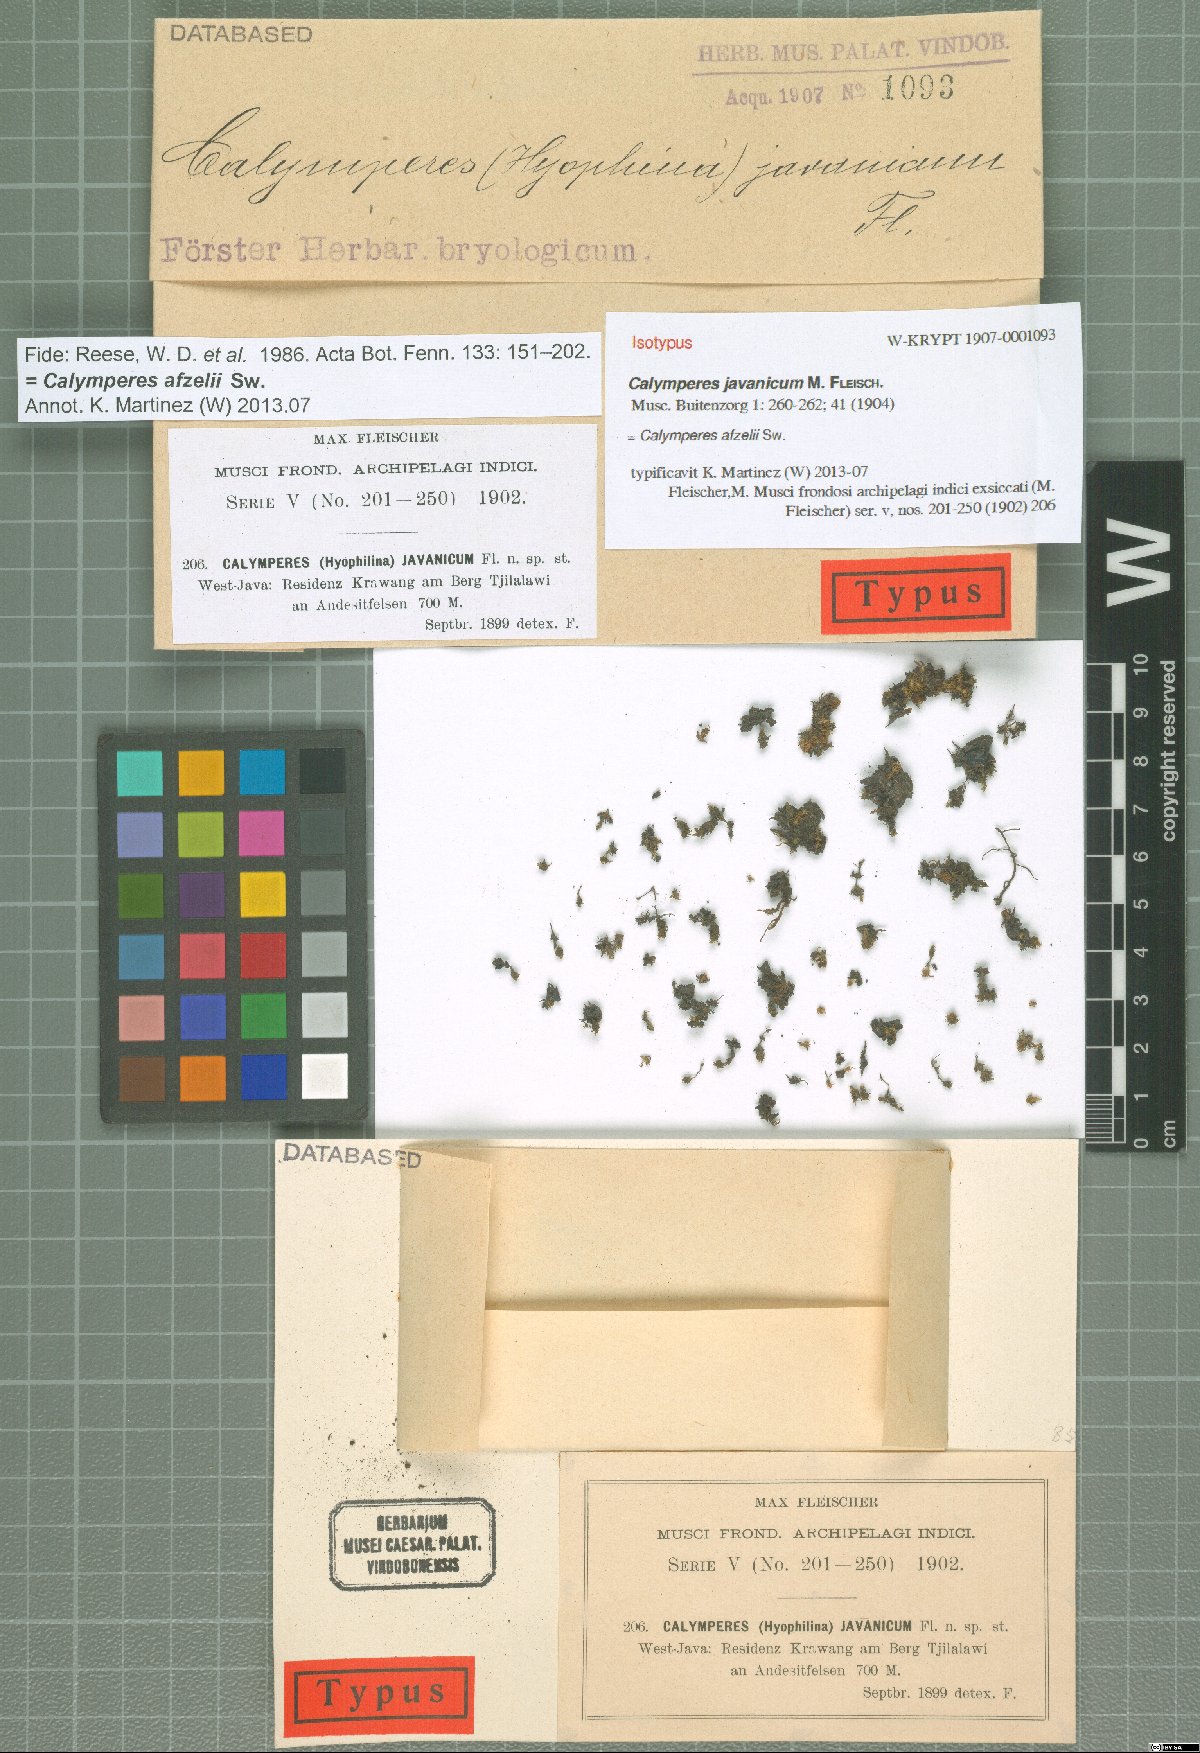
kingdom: Plantae
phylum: Bryophyta
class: Bryopsida
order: Dicranales
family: Calymperaceae
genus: Calymperes
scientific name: Calymperes afzelii
